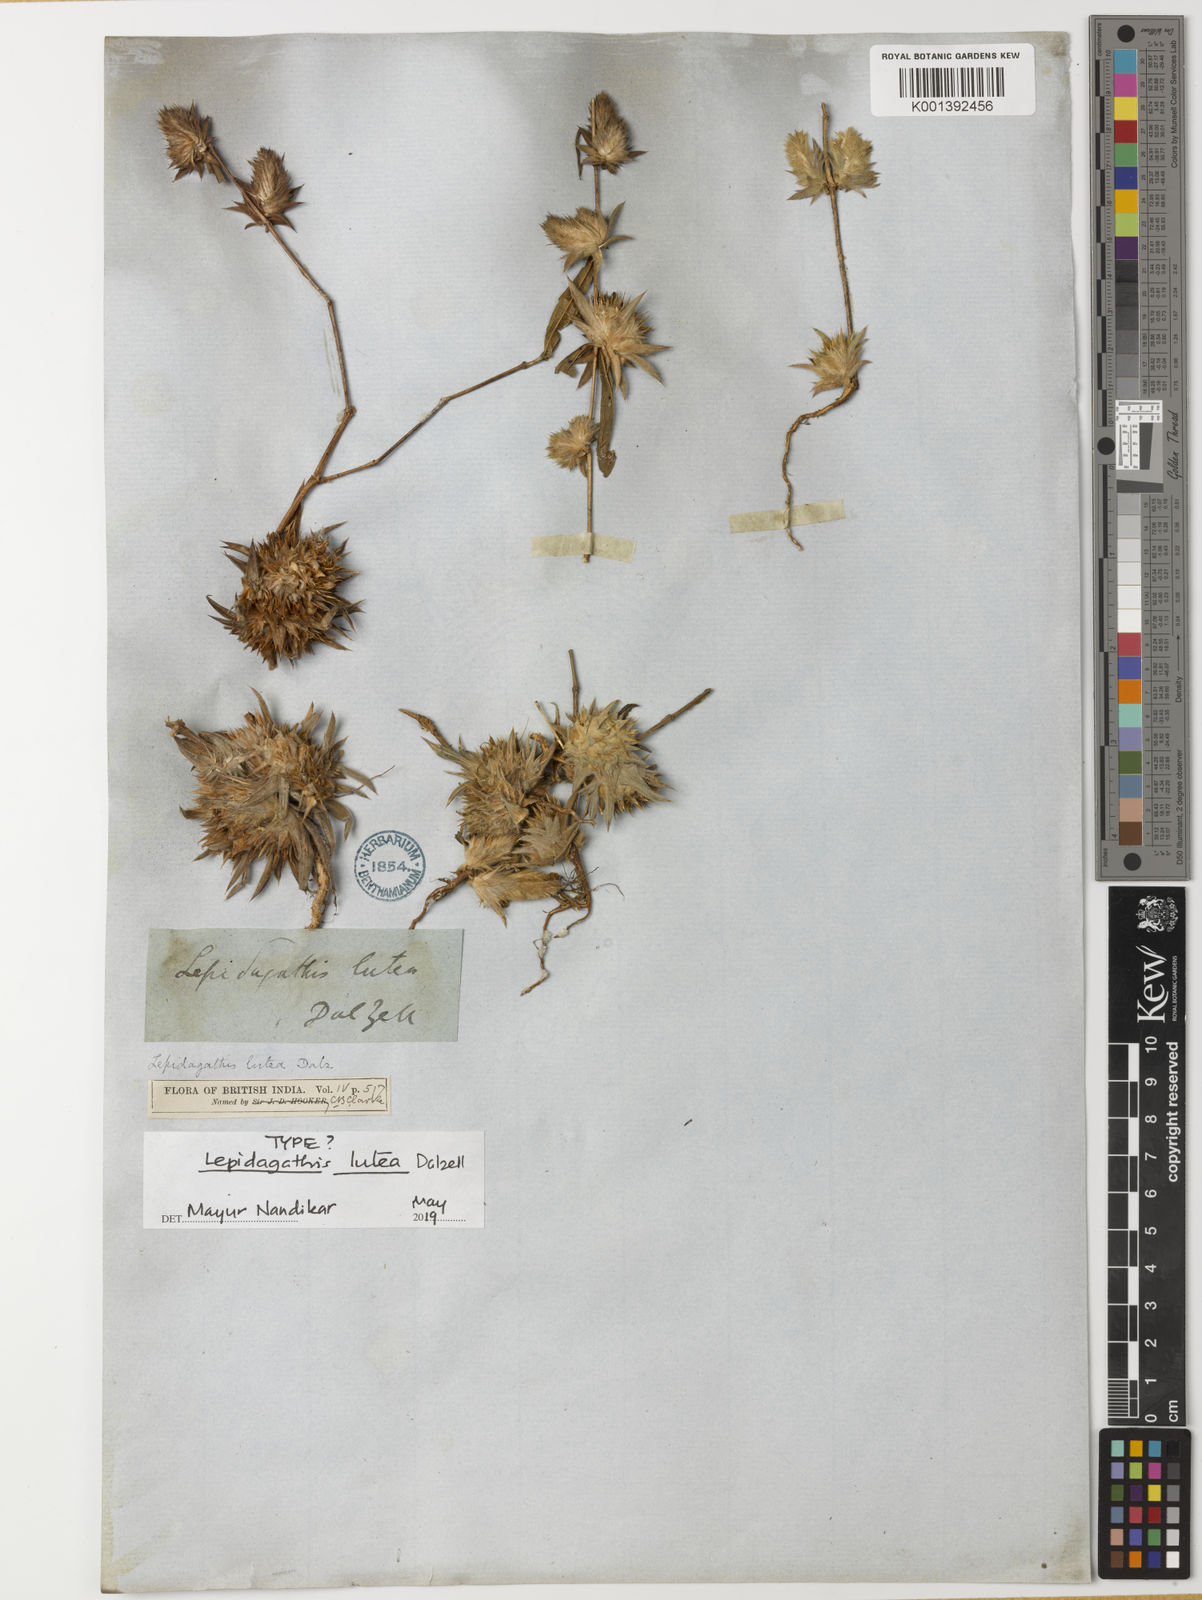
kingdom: Plantae
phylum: Tracheophyta
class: Magnoliopsida
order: Lamiales
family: Acanthaceae
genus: Lepidagathis
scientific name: Lepidagathis lutea
